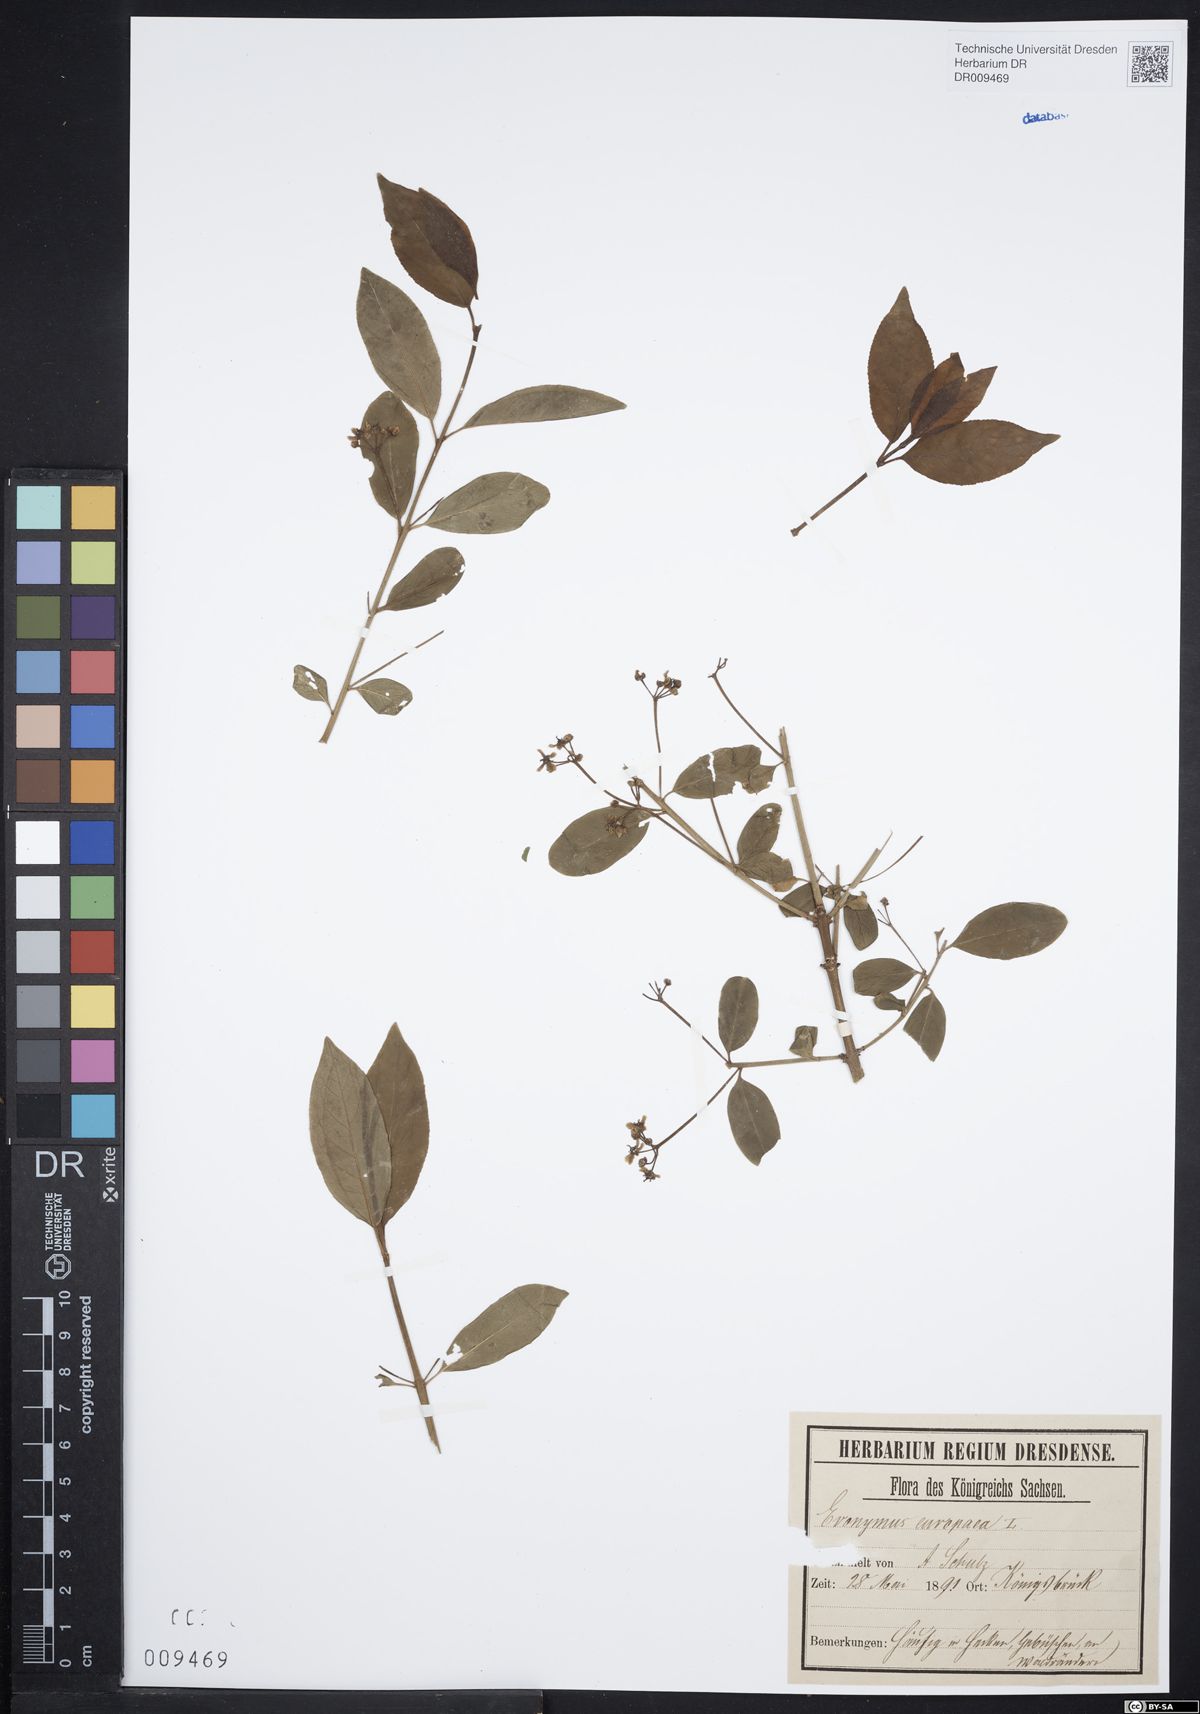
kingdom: Plantae
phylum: Tracheophyta
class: Magnoliopsida
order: Celastrales
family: Celastraceae
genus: Euonymus
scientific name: Euonymus europaeus
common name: Spindle
